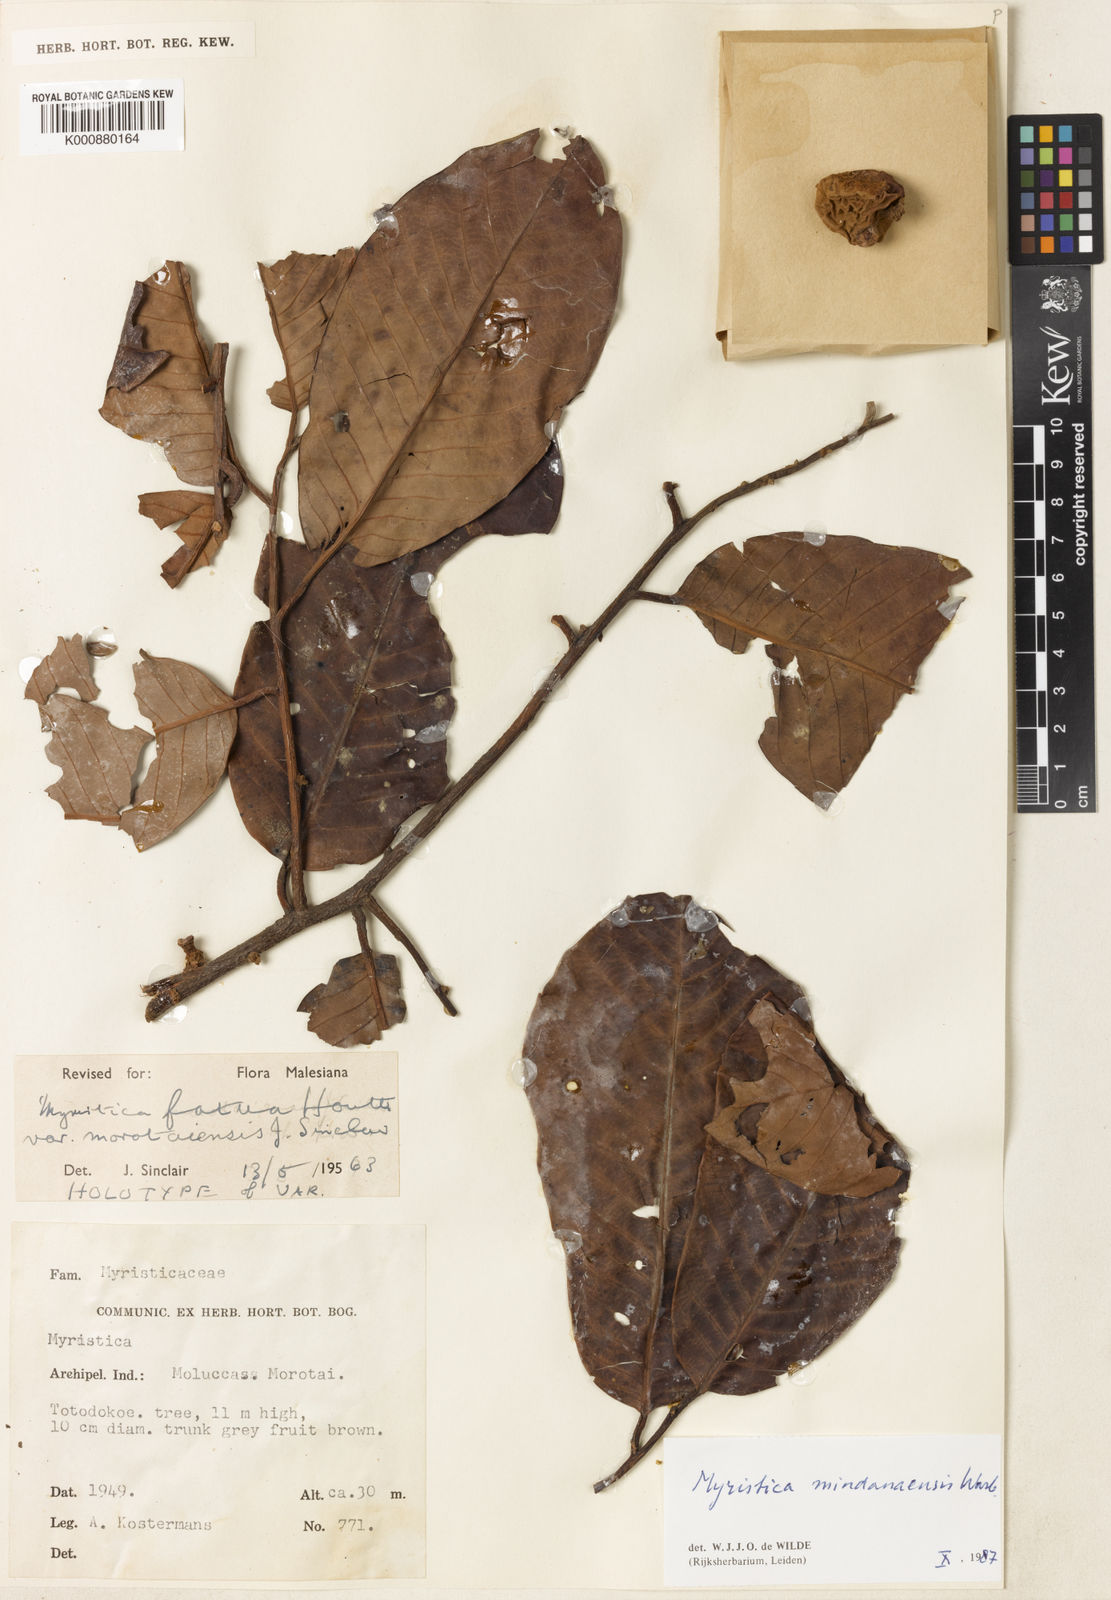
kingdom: Plantae
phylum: Tracheophyta
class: Magnoliopsida
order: Magnoliales
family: Myristicaceae
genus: Myristica
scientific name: Myristica mindanaensis
